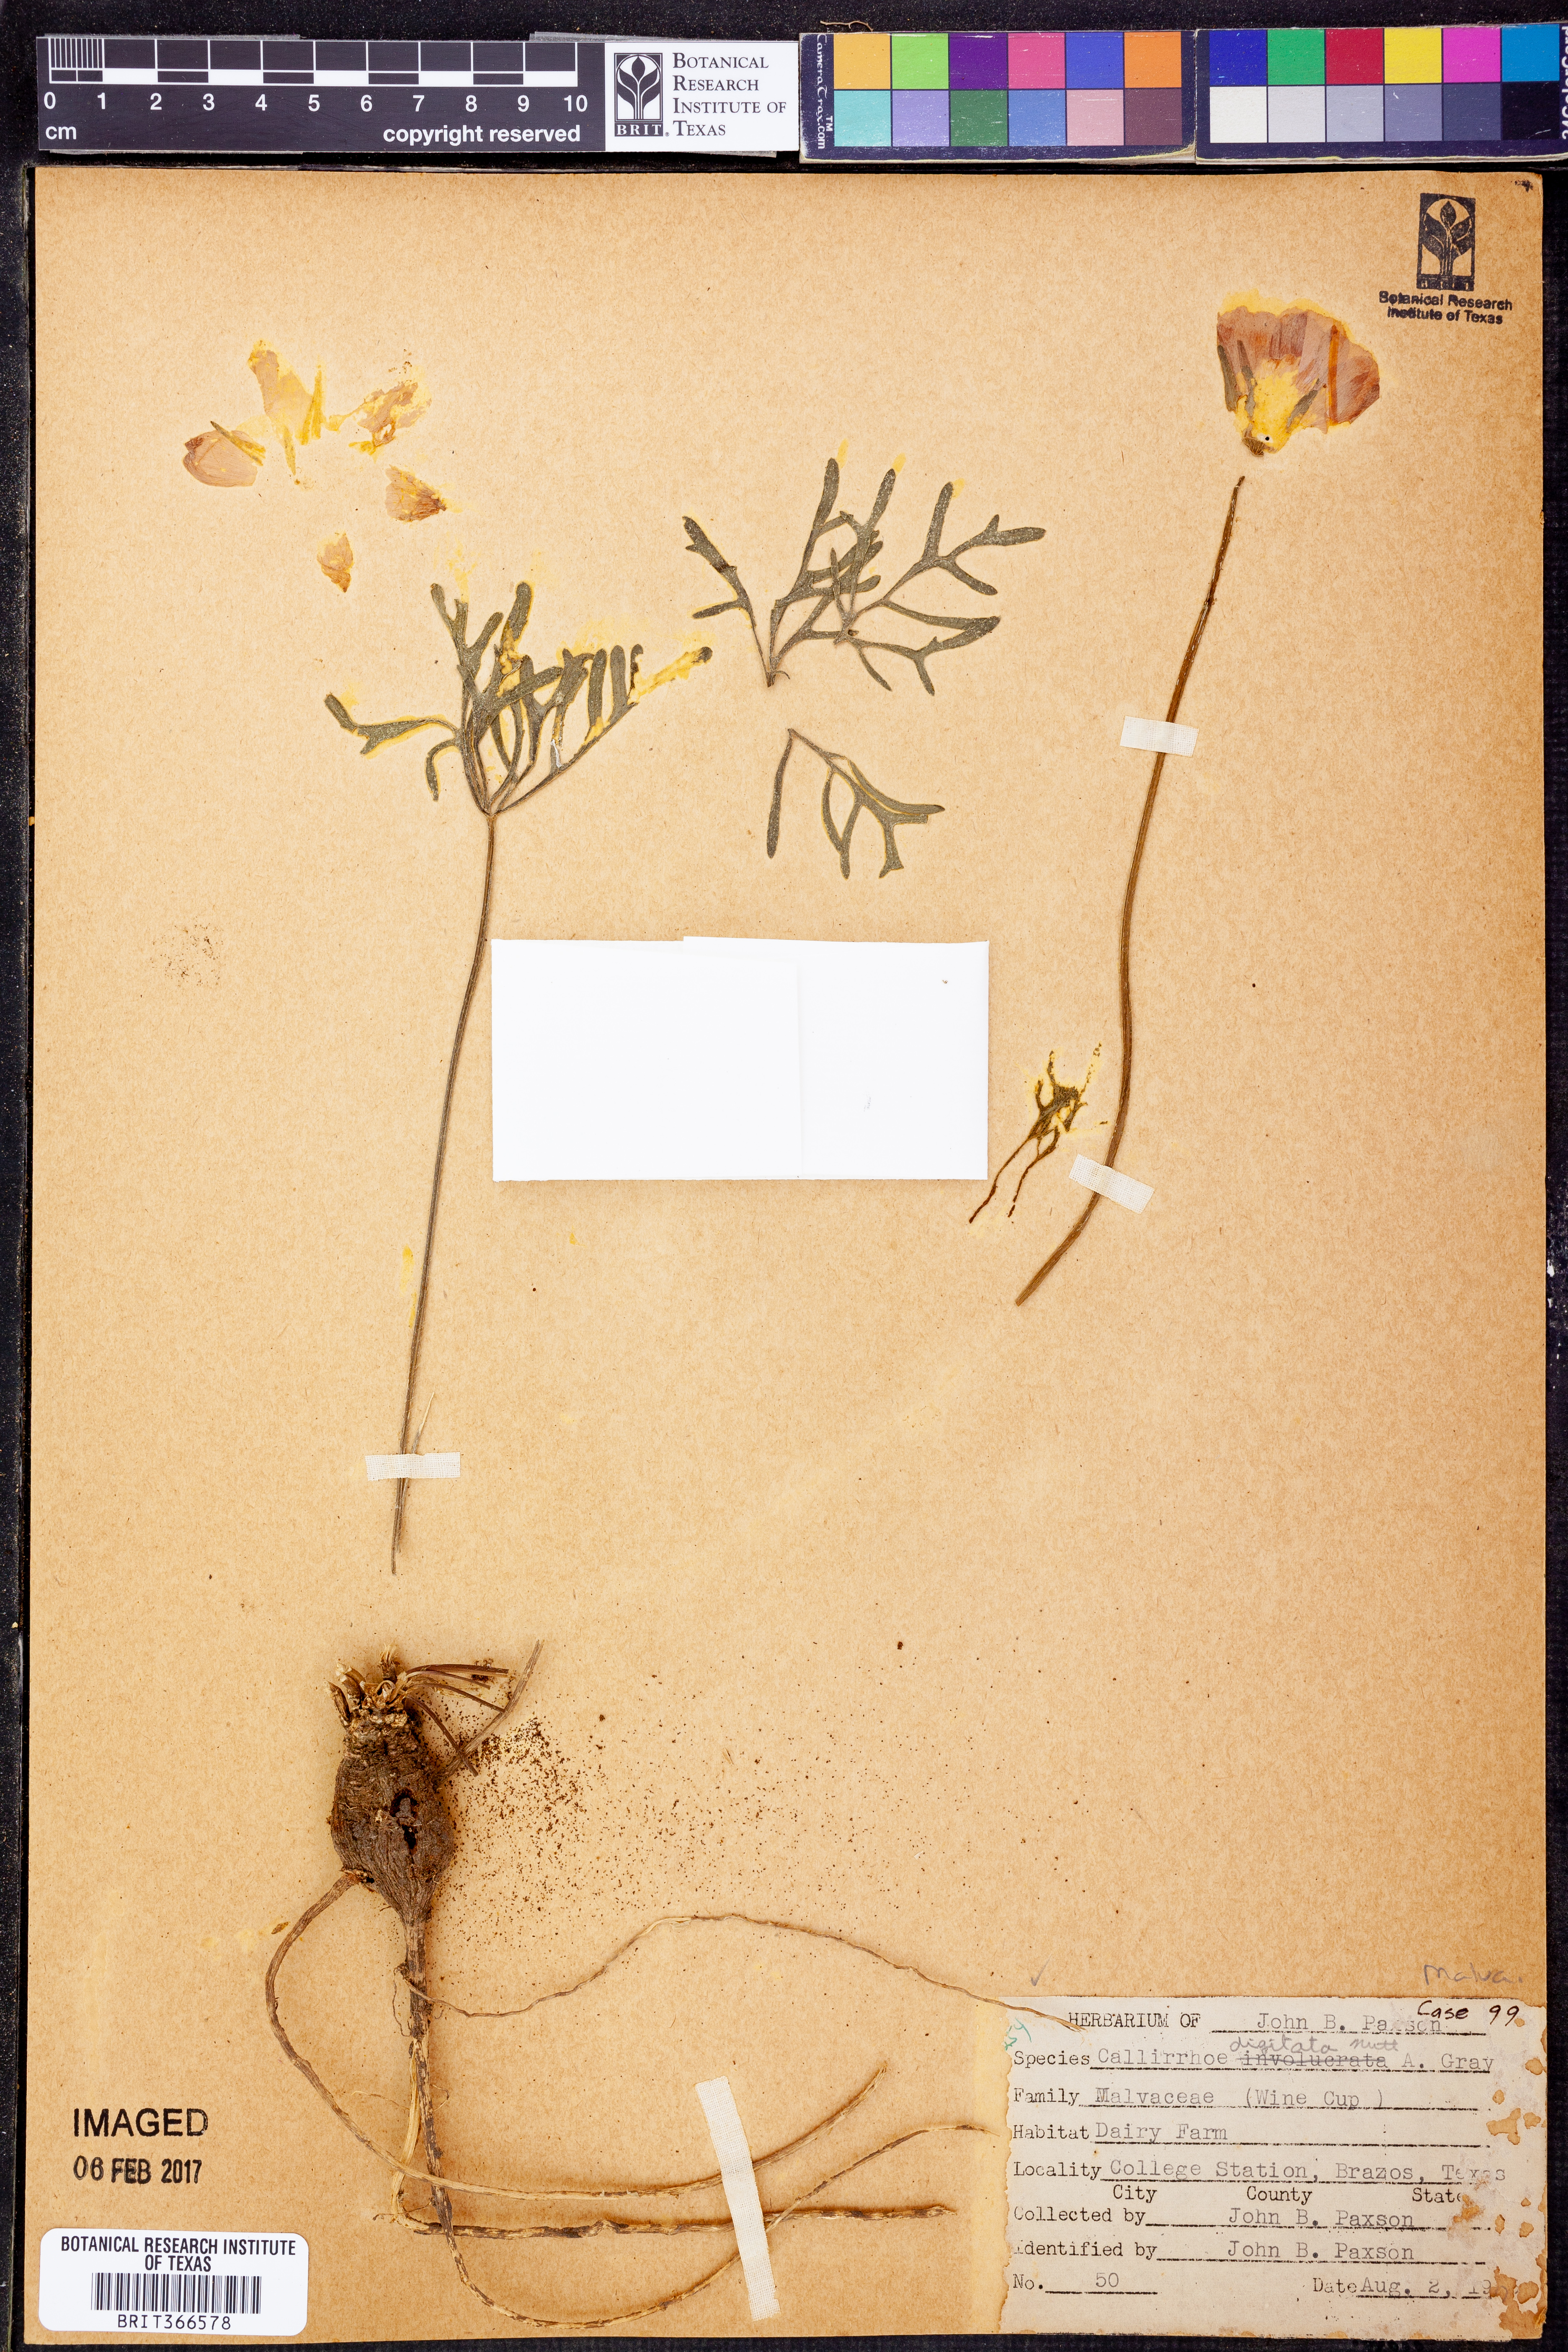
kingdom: Plantae
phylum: Tracheophyta
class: Magnoliopsida
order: Malvales
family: Malvaceae
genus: Callirhoe
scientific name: Callirhoe digitata
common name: Finger poppy-mallow
